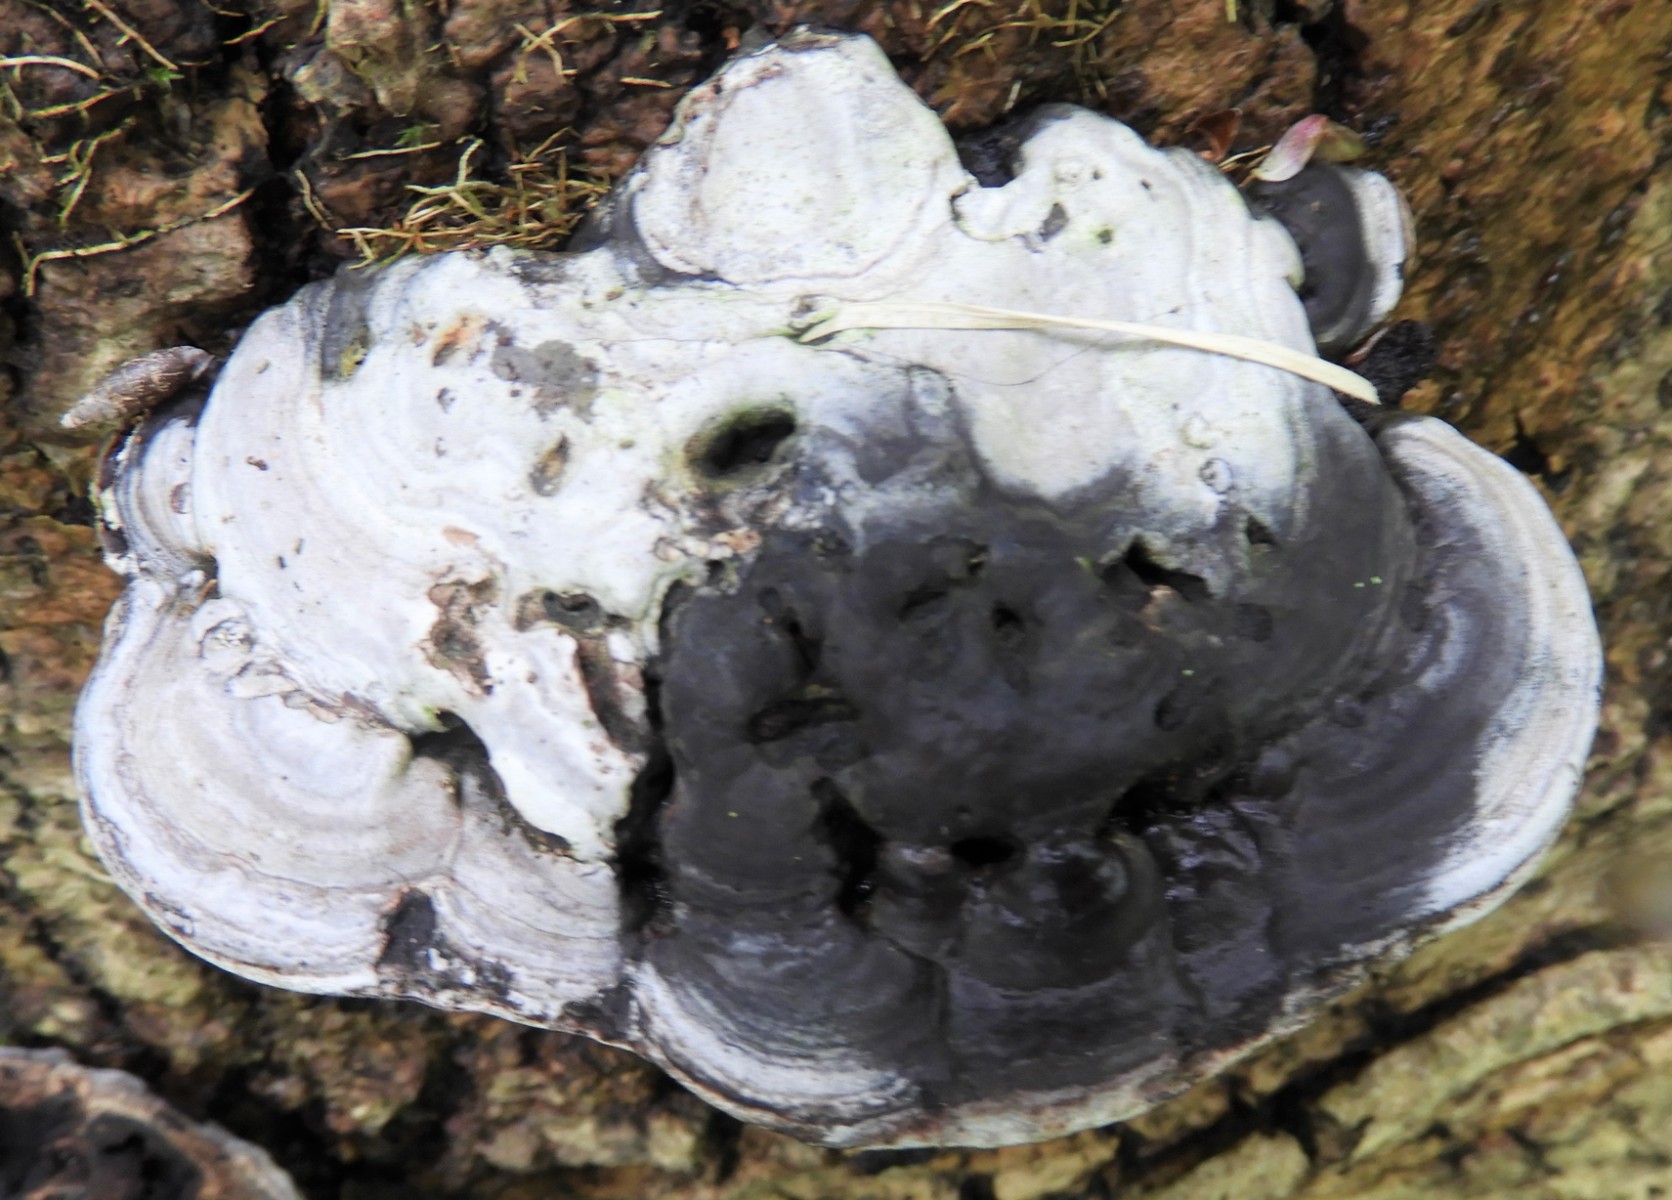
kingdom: Fungi
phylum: Basidiomycota
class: Agaricomycetes
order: Polyporales
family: Polyporaceae
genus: Ganoderma
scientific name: Ganoderma applanatum
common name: flad lakporesvamp
